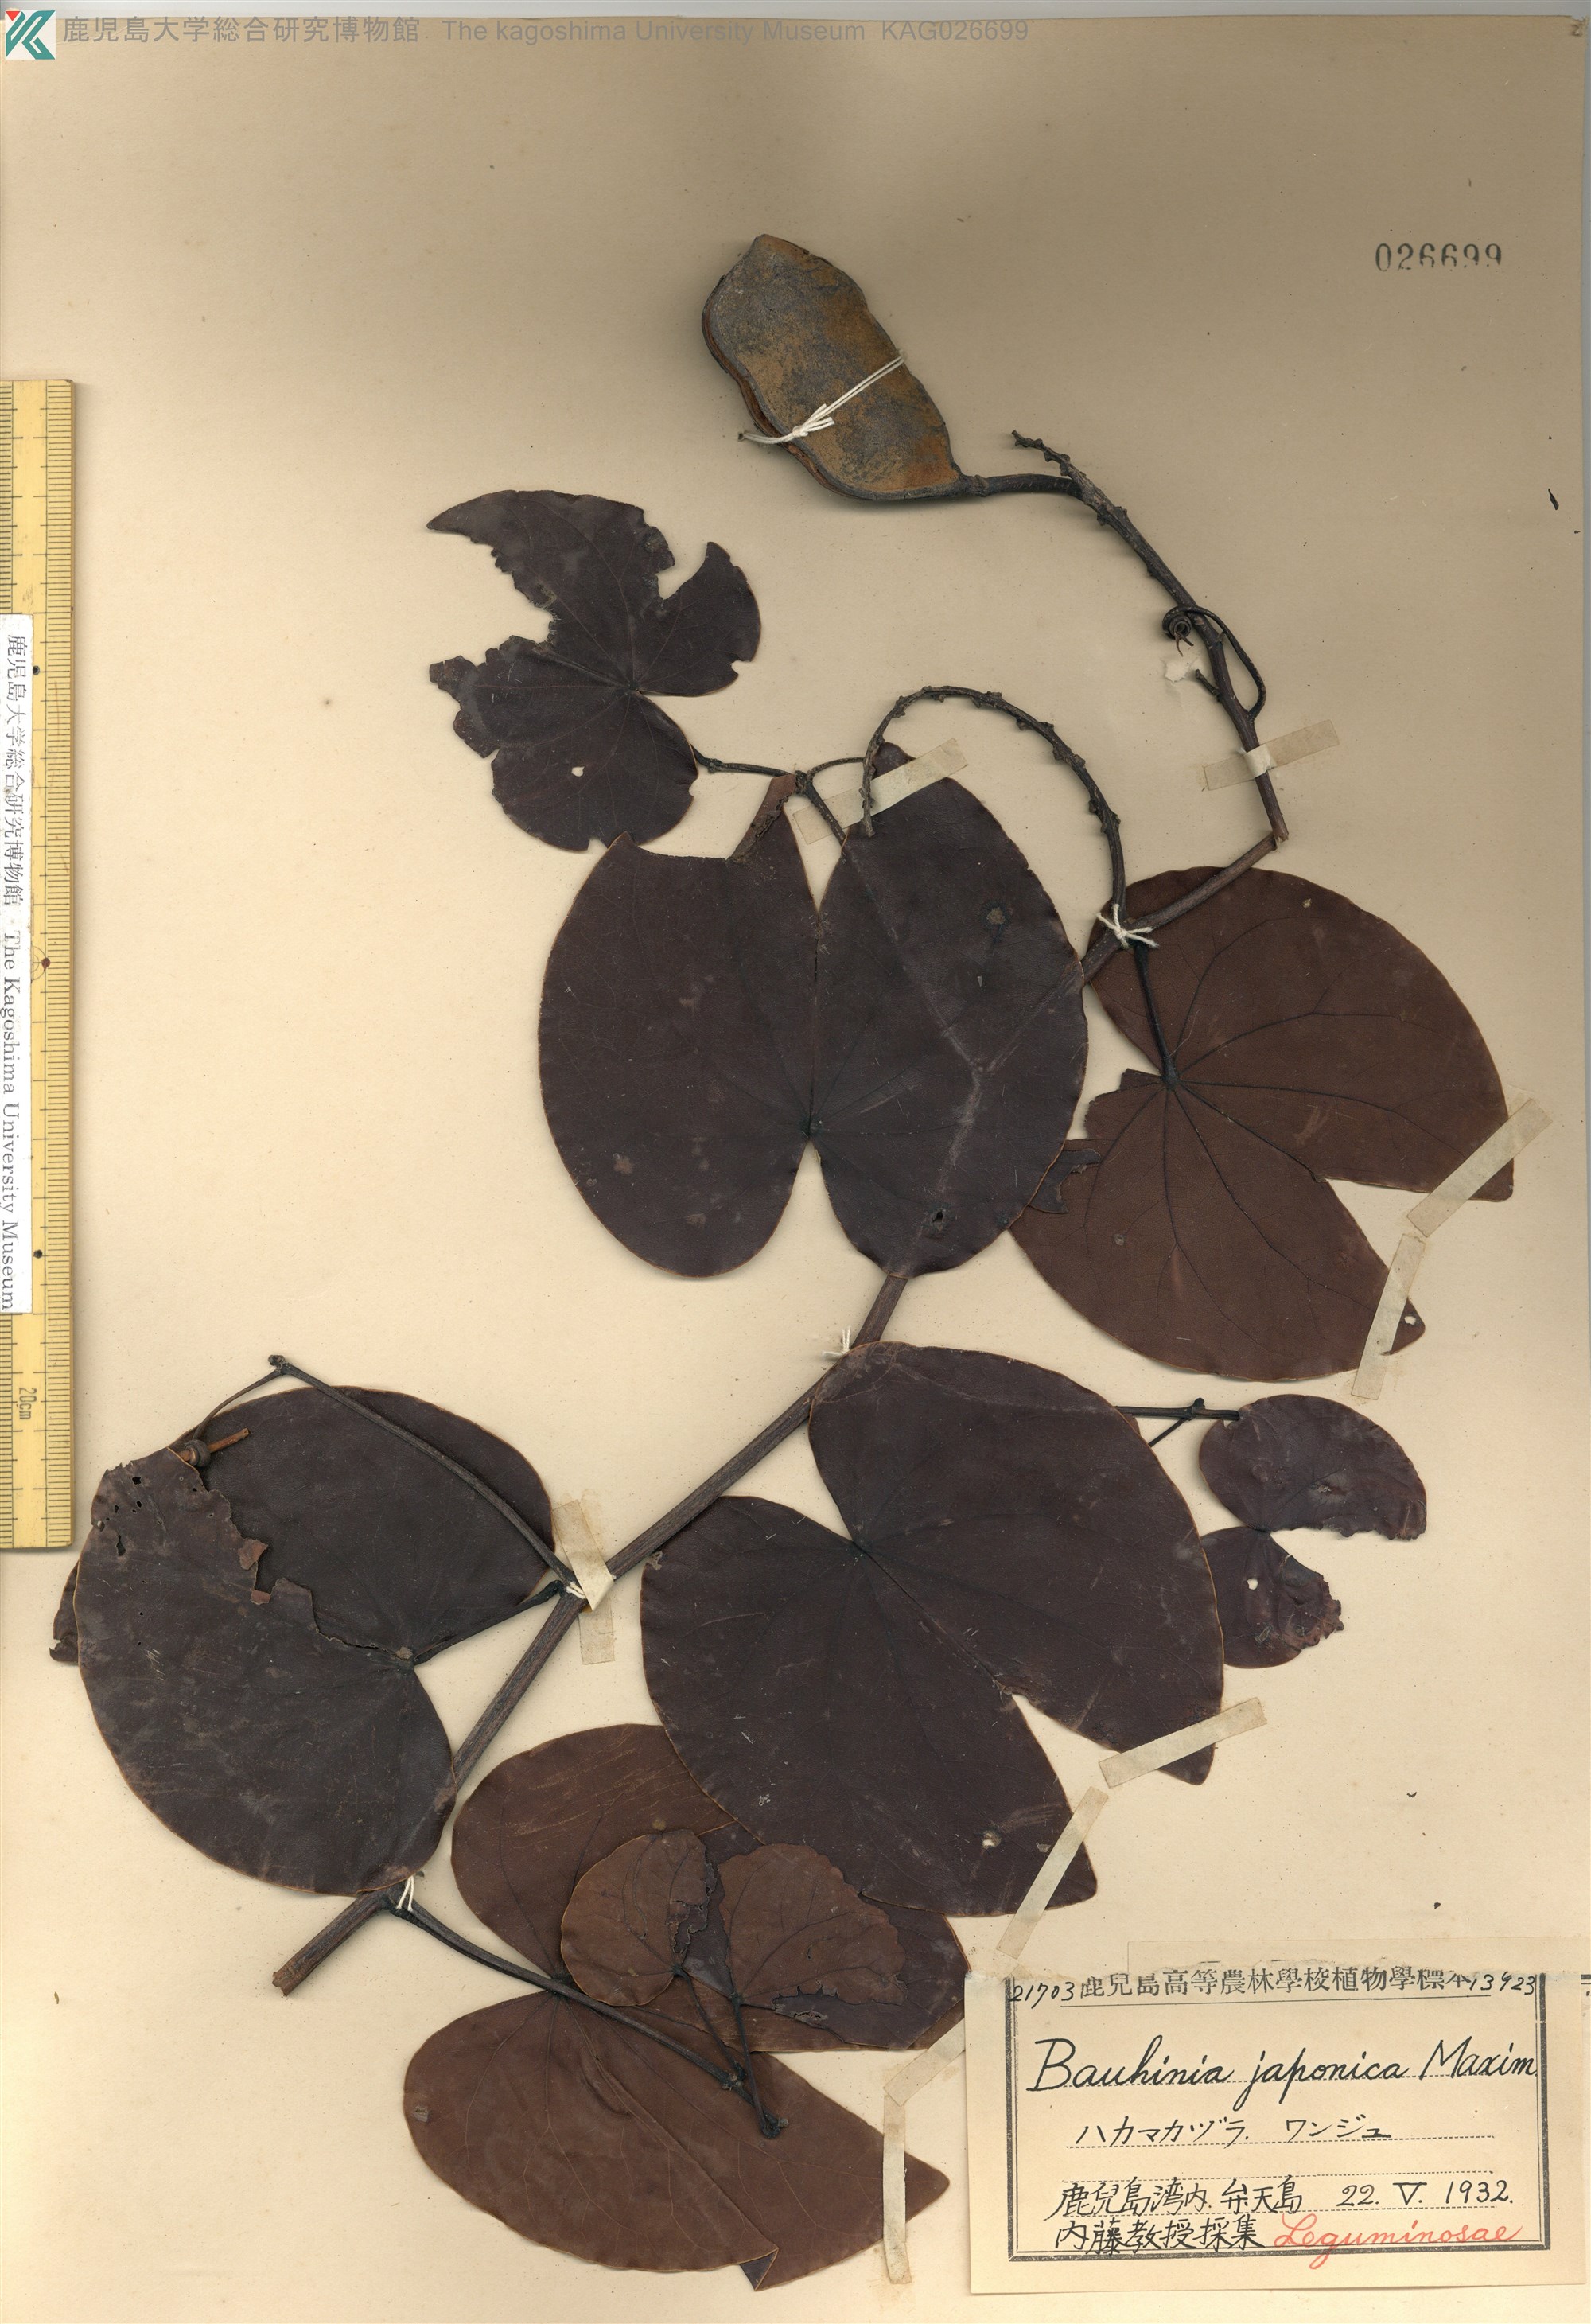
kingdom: Plantae
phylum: Tracheophyta
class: Magnoliopsida
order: Fabales
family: Fabaceae
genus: Phanera
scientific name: Phanera japonica
